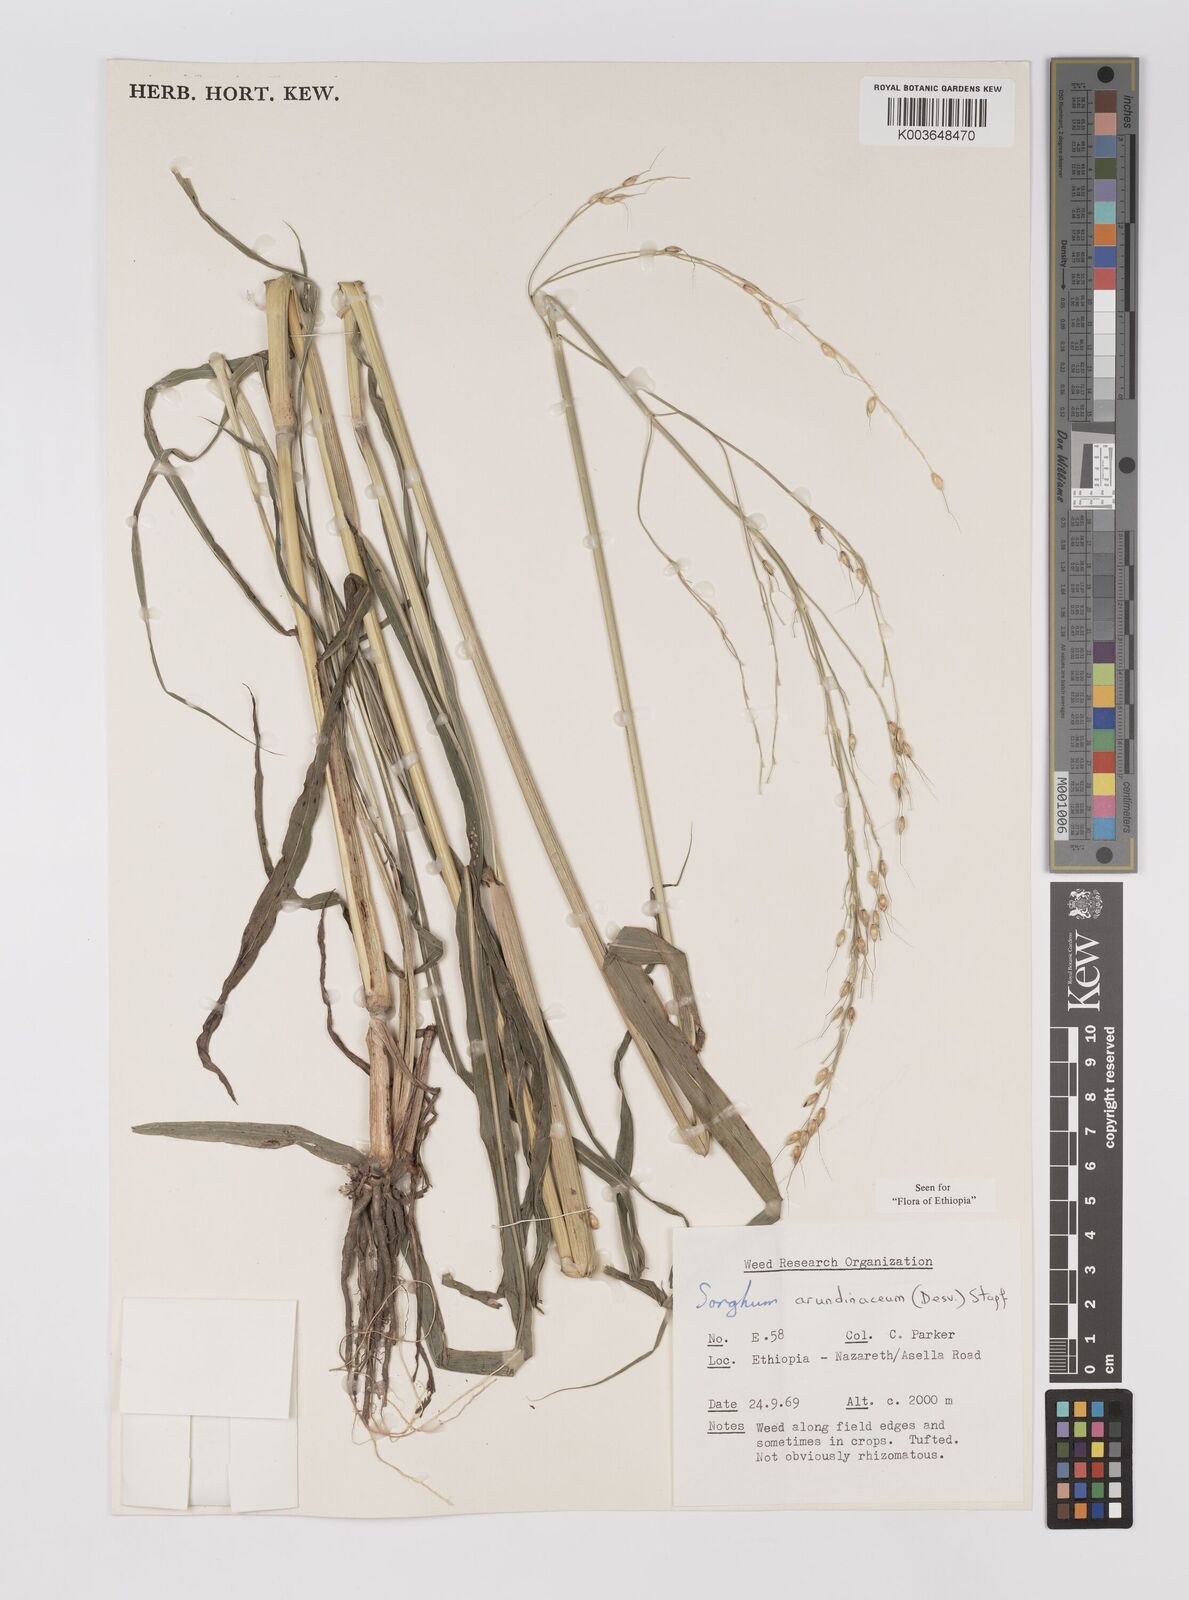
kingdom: Plantae
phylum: Tracheophyta
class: Liliopsida
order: Poales
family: Poaceae
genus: Sorghum
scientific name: Sorghum arundinaceum
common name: Sorghum
